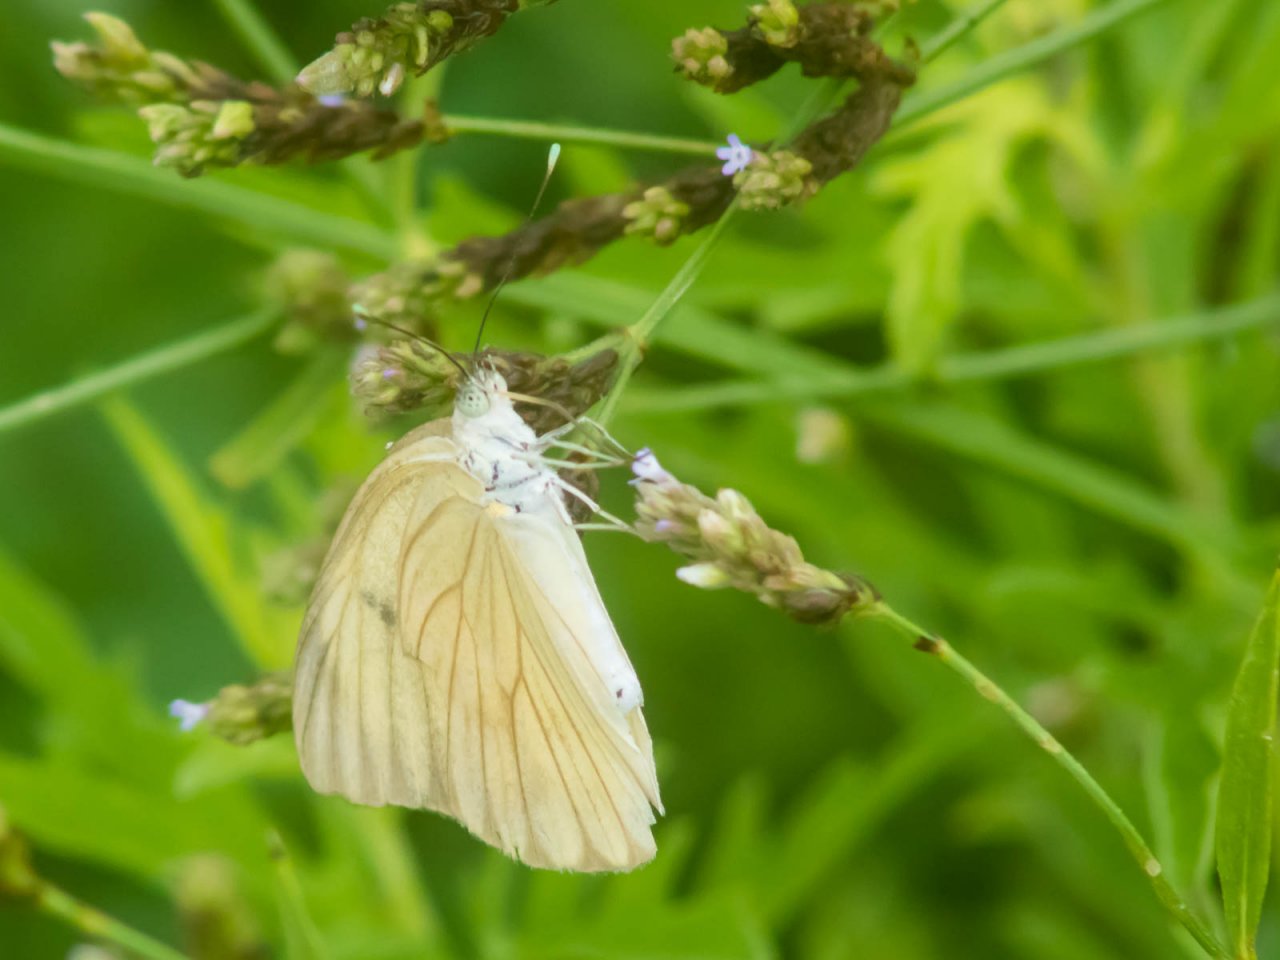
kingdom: Animalia
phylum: Arthropoda
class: Insecta
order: Lepidoptera
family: Pieridae
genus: Ascia
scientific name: Ascia monuste
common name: Great Southern White
